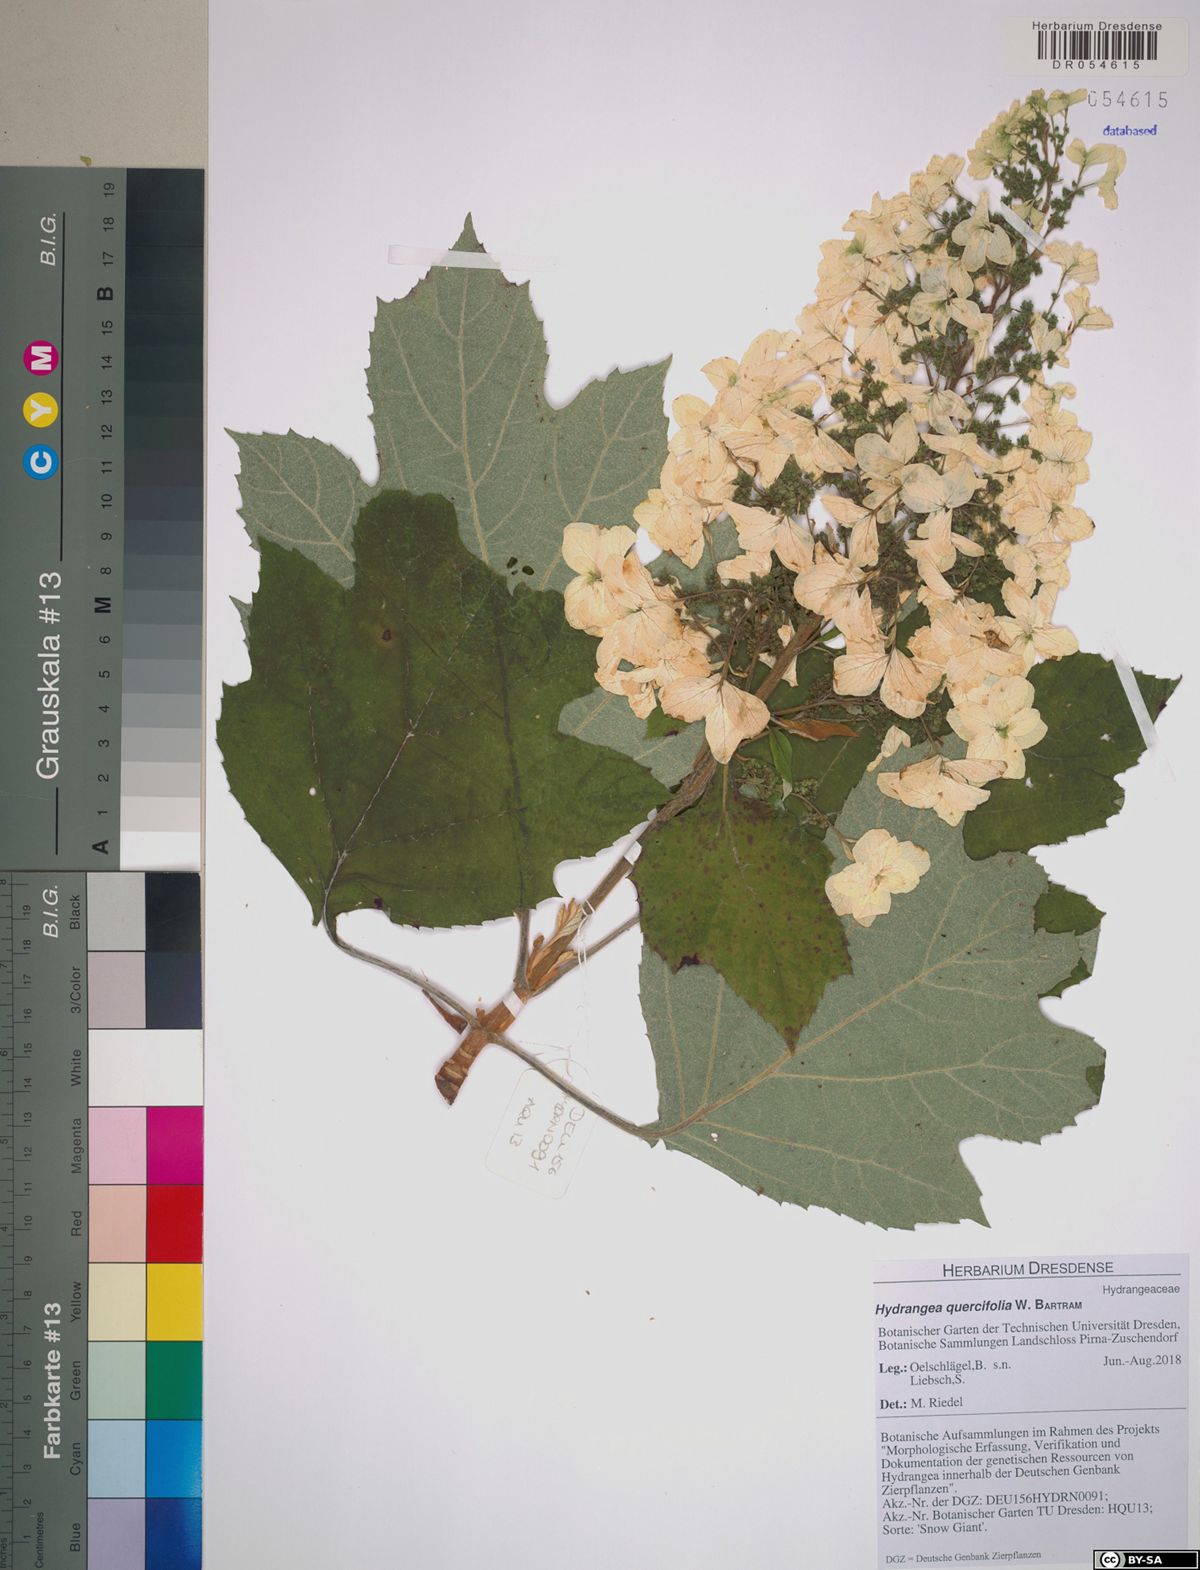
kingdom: Plantae
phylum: Tracheophyta
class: Magnoliopsida
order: Cornales
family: Hydrangeaceae
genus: Hydrangea
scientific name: Hydrangea quercifolia
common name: Oak-leaf hydrangea
